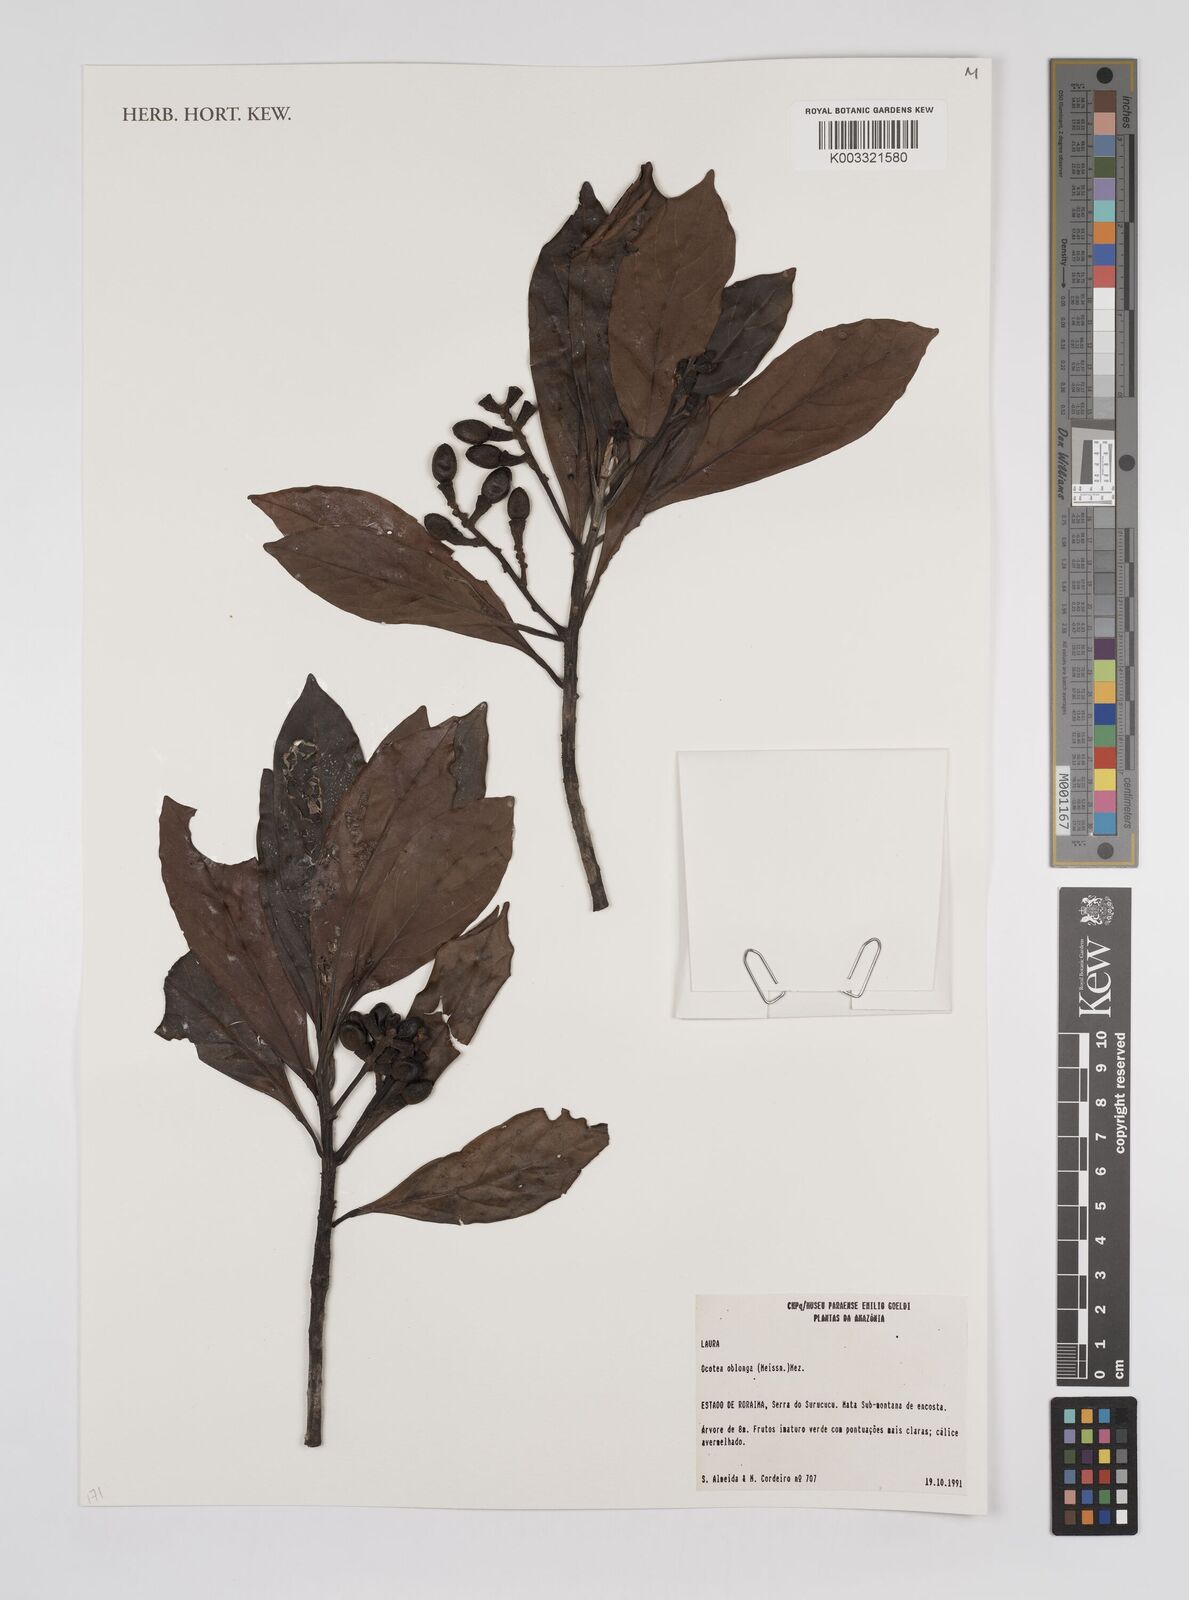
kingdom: Plantae
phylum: Tracheophyta
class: Magnoliopsida
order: Laurales
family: Lauraceae
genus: Ocotea
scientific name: Ocotea oblonga
